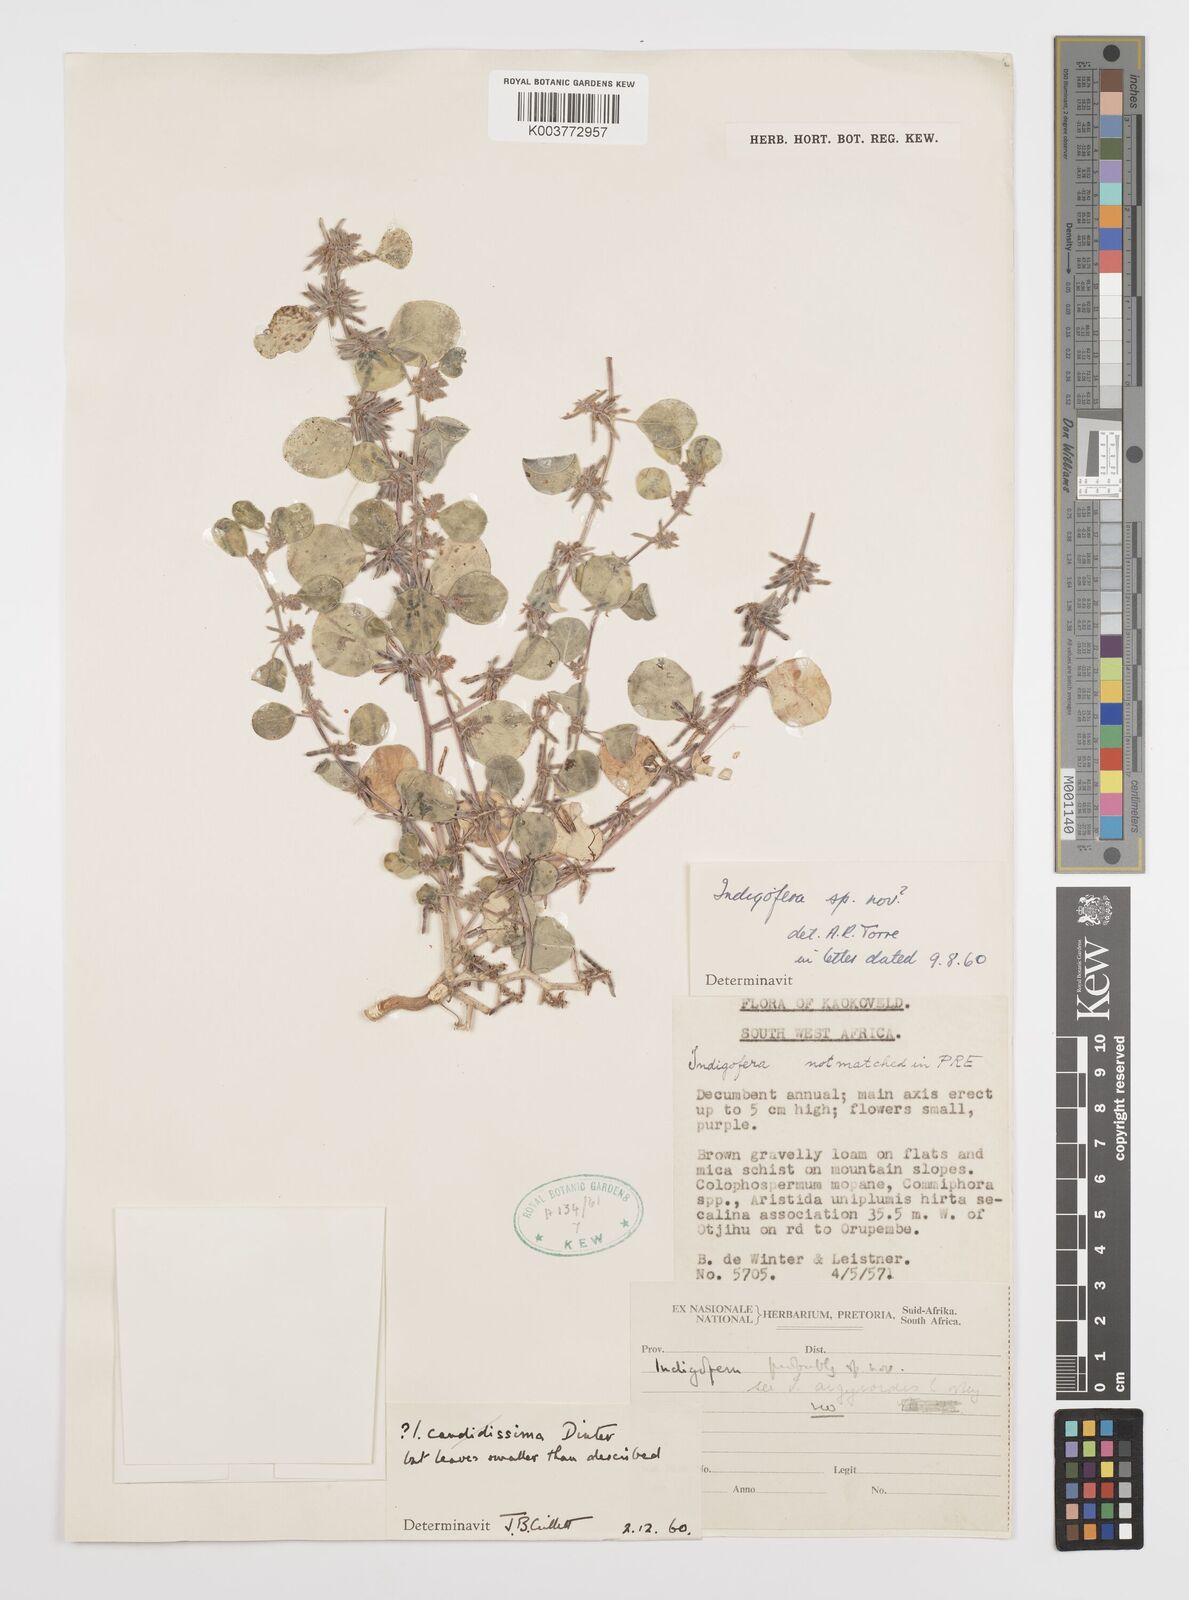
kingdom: Plantae
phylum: Tracheophyta
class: Magnoliopsida
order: Fabales
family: Fabaceae
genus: Indigofera
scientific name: Indigofera anabibensis
